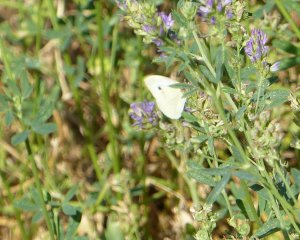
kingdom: Animalia
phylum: Arthropoda
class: Insecta
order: Lepidoptera
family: Pieridae
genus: Pieris
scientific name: Pieris rapae
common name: Cabbage White
